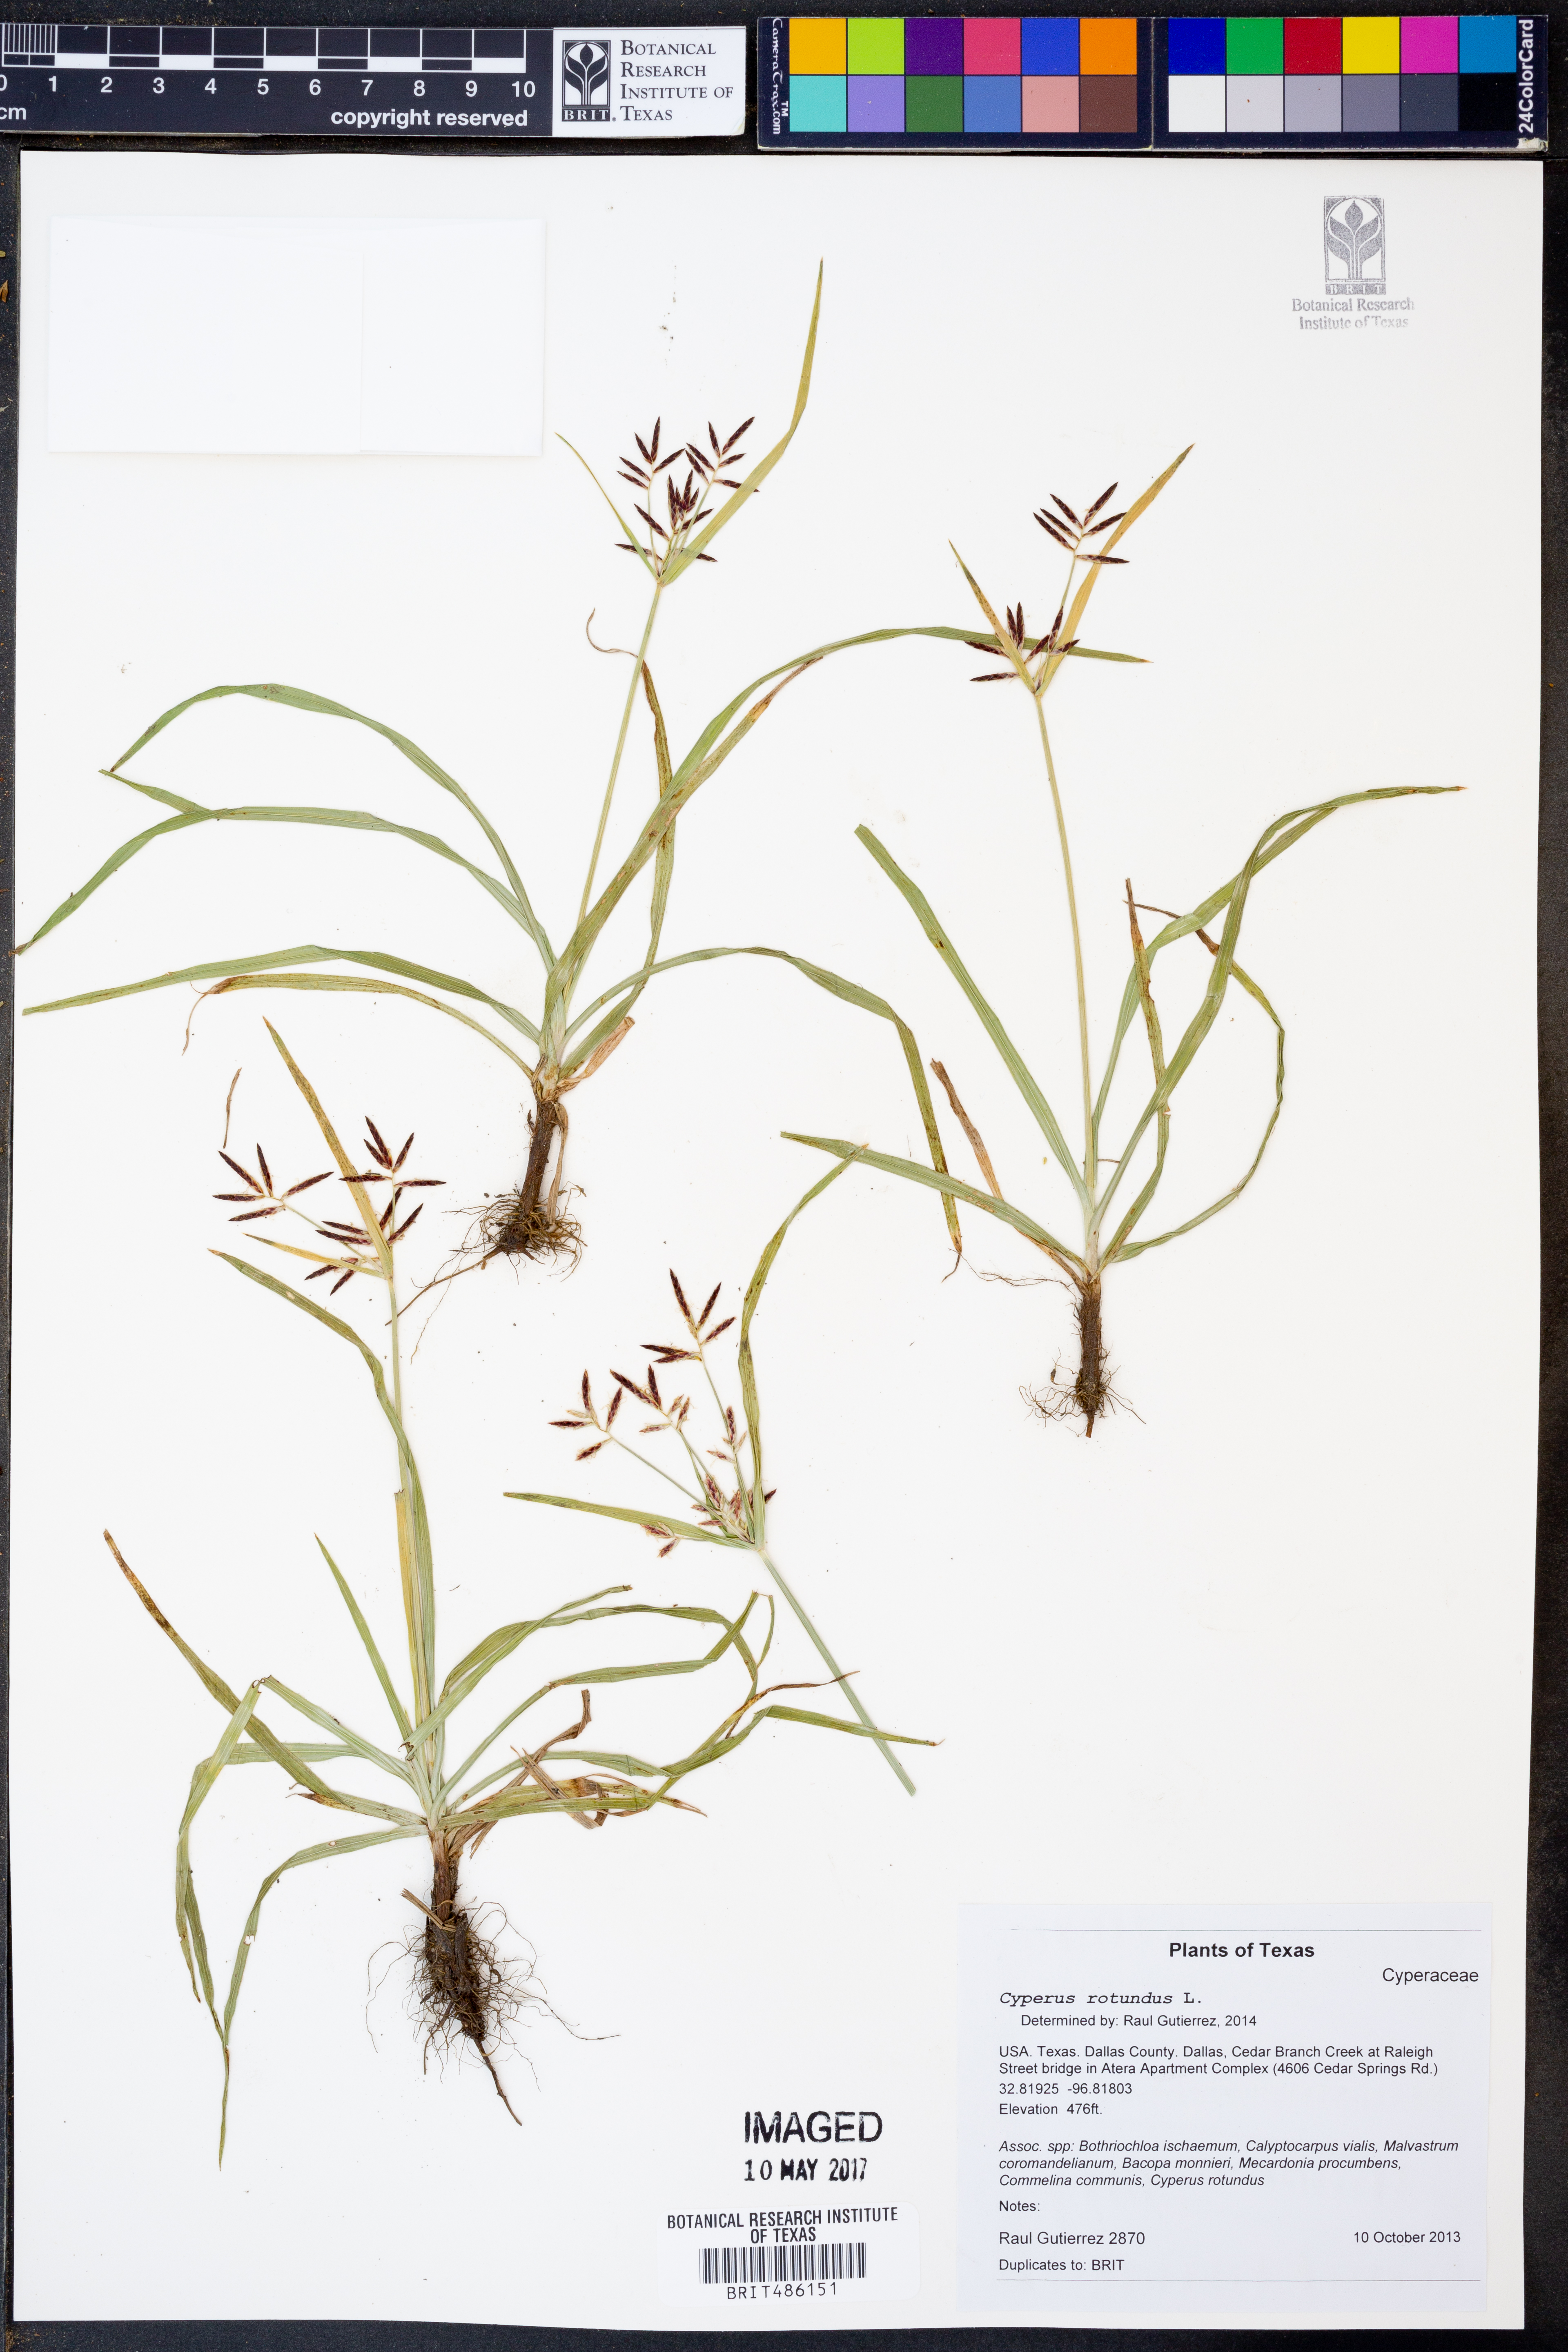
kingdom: Plantae
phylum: Tracheophyta
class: Liliopsida
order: Poales
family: Cyperaceae
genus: Cyperus
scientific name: Cyperus rotundus
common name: Nutgrass
